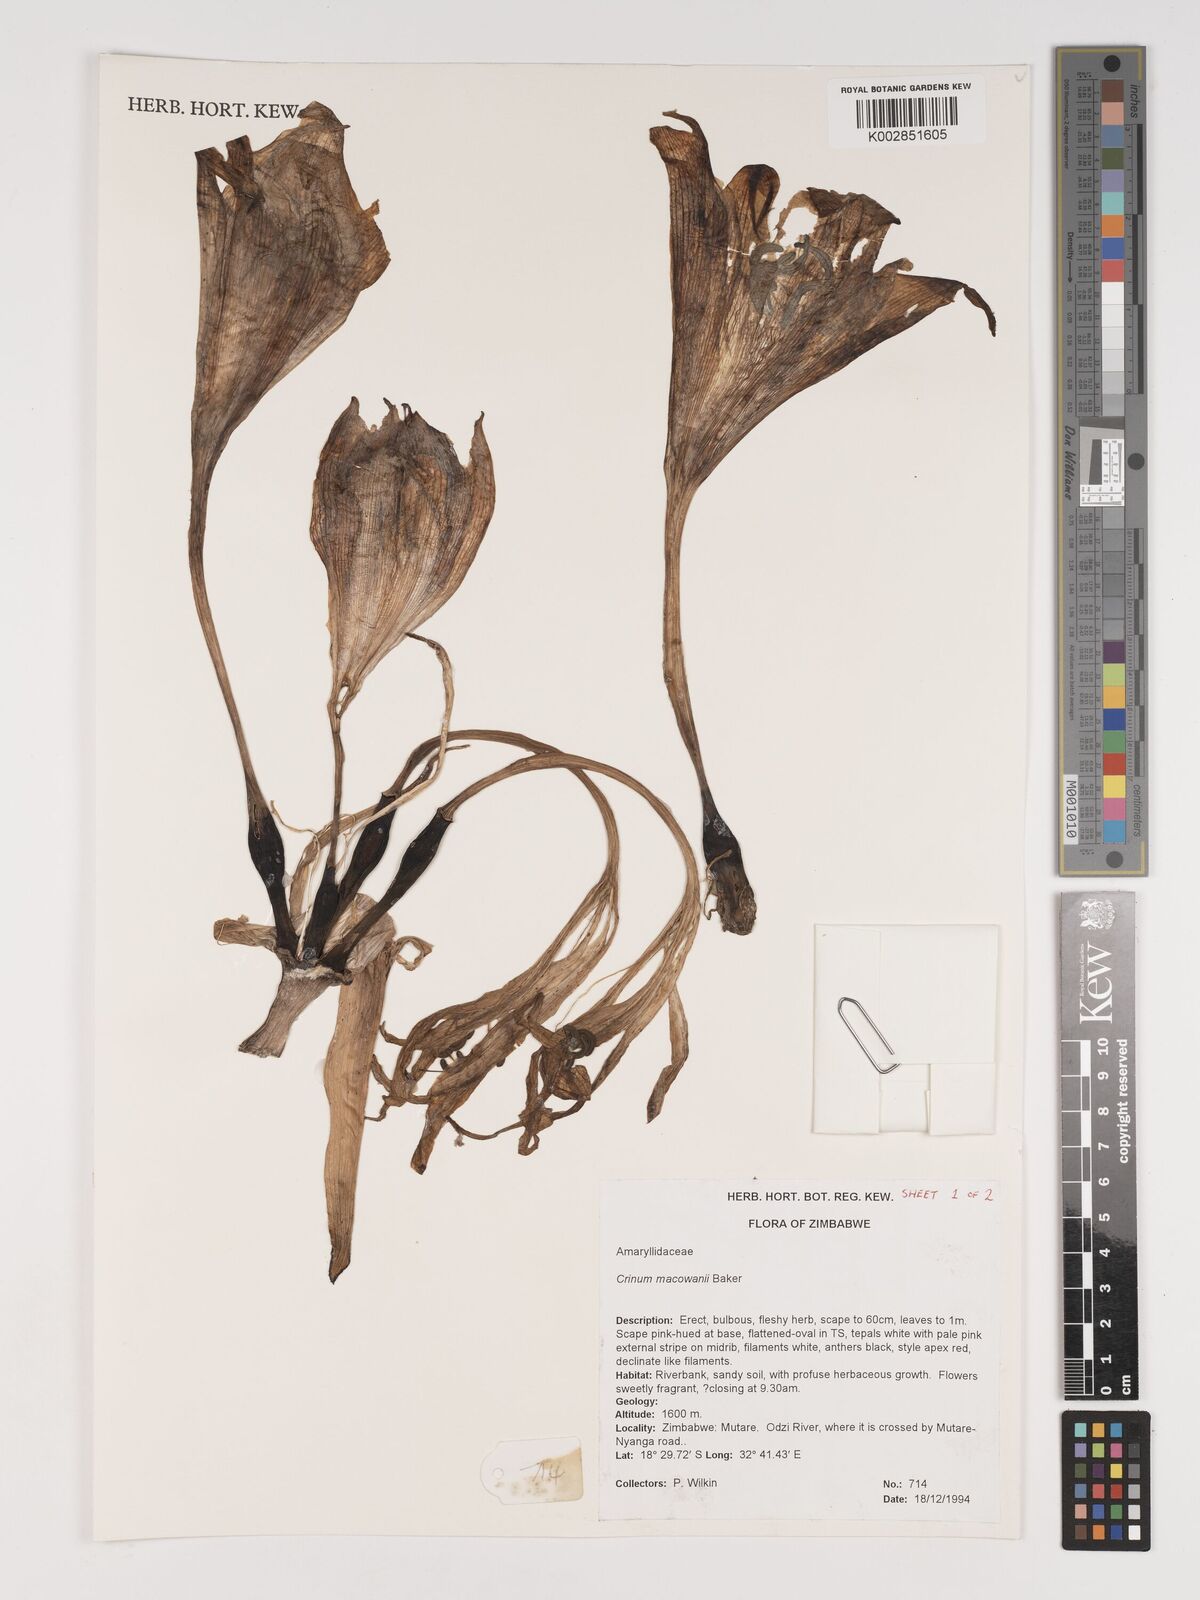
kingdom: Plantae
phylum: Tracheophyta
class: Liliopsida
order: Asparagales
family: Amaryllidaceae
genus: Crinum
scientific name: Crinum macowanii
